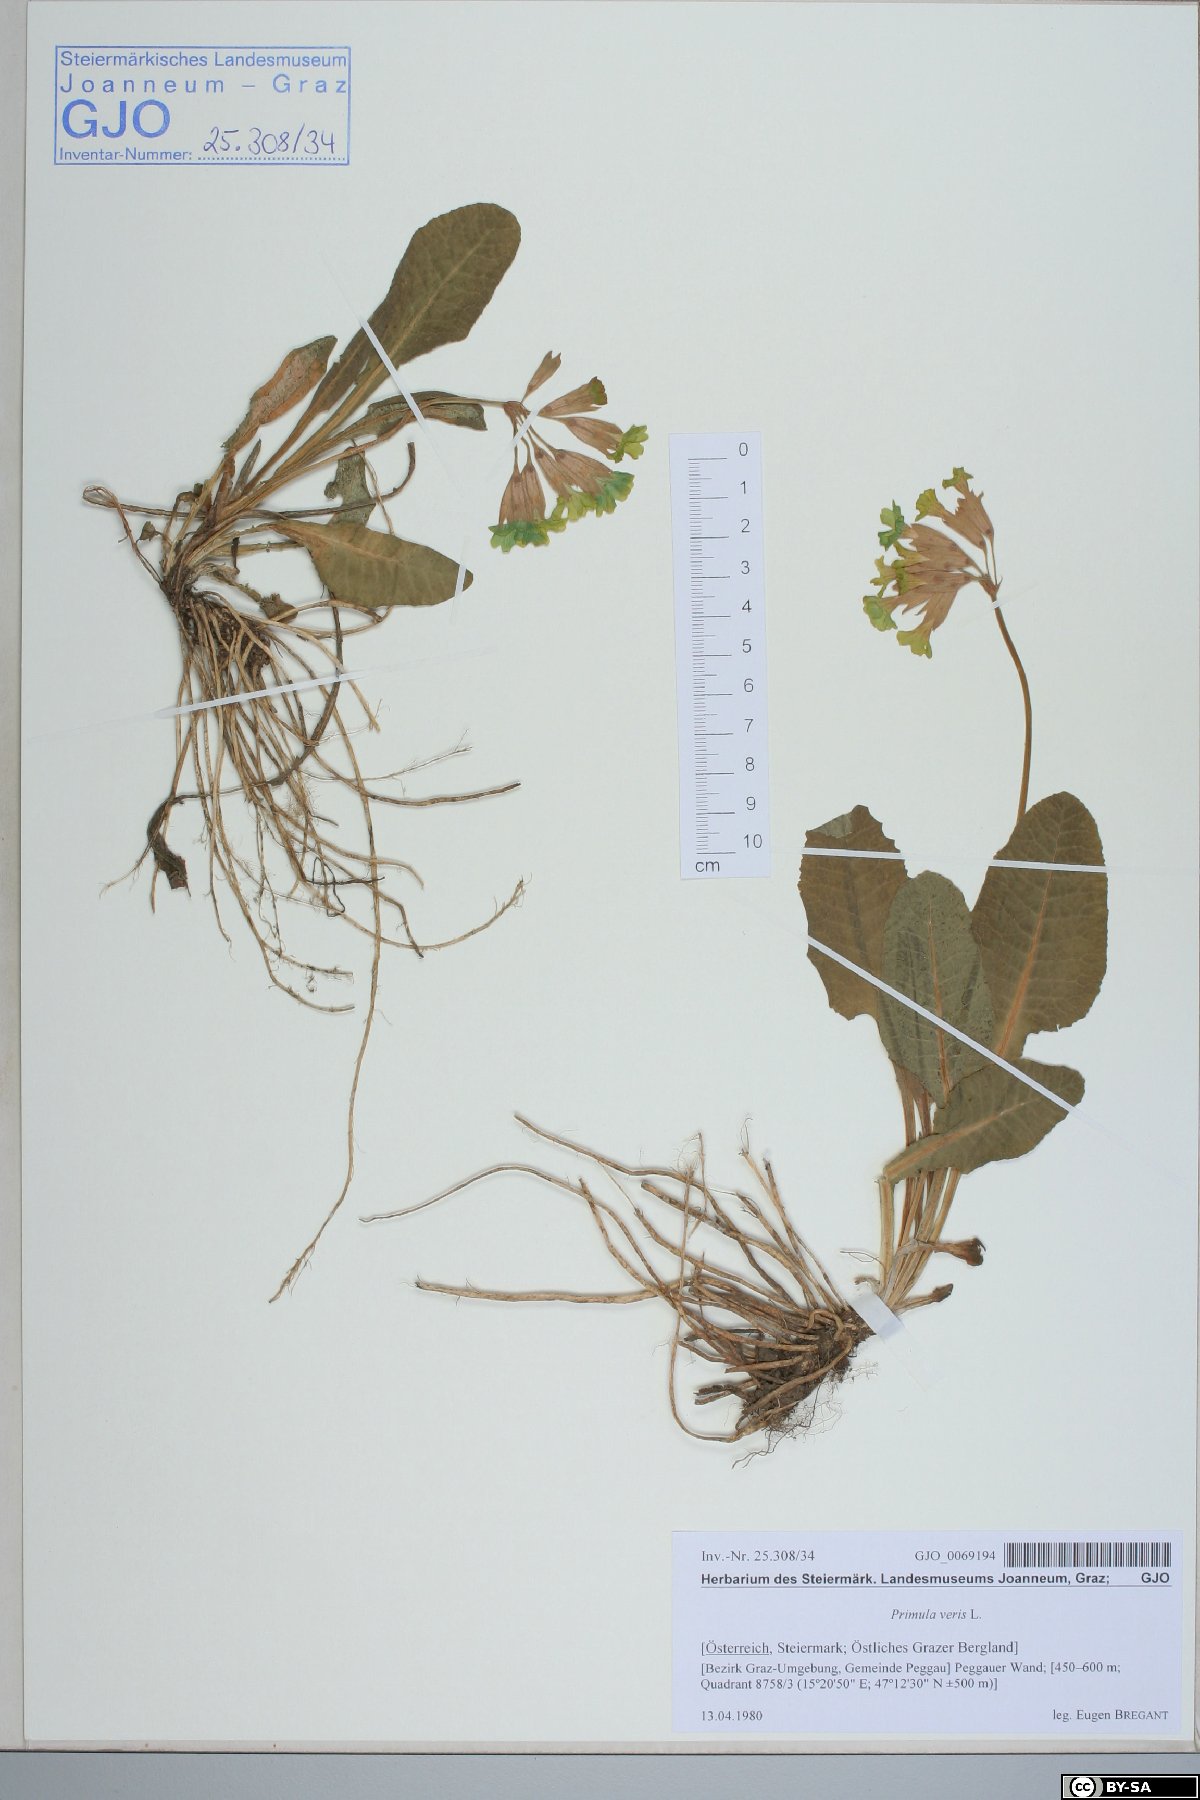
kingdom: Plantae
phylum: Tracheophyta
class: Magnoliopsida
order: Ericales
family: Primulaceae
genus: Primula
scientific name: Primula veris
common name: Cowslip
